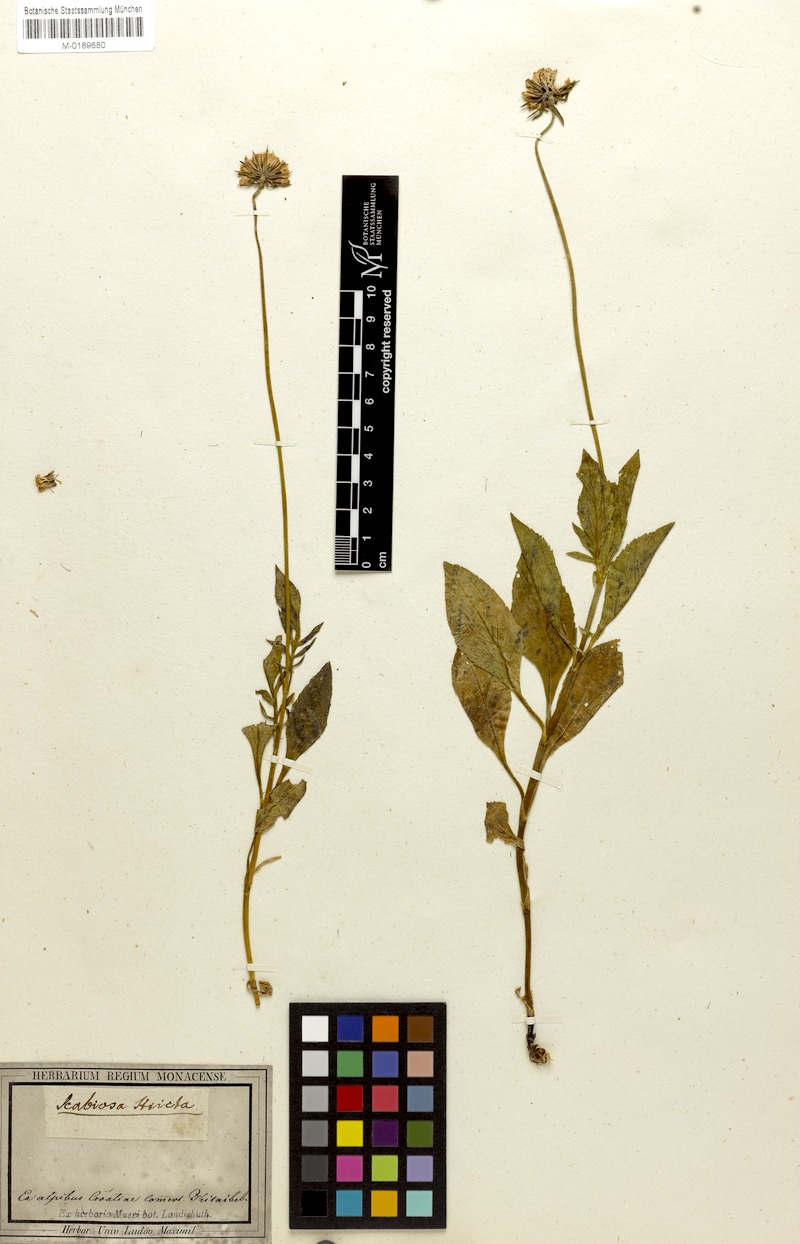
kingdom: Plantae
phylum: Tracheophyta
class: Magnoliopsida
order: Dipsacales
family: Caprifoliaceae
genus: Scabiosa
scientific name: Scabiosa lucida
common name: Shining scabious
